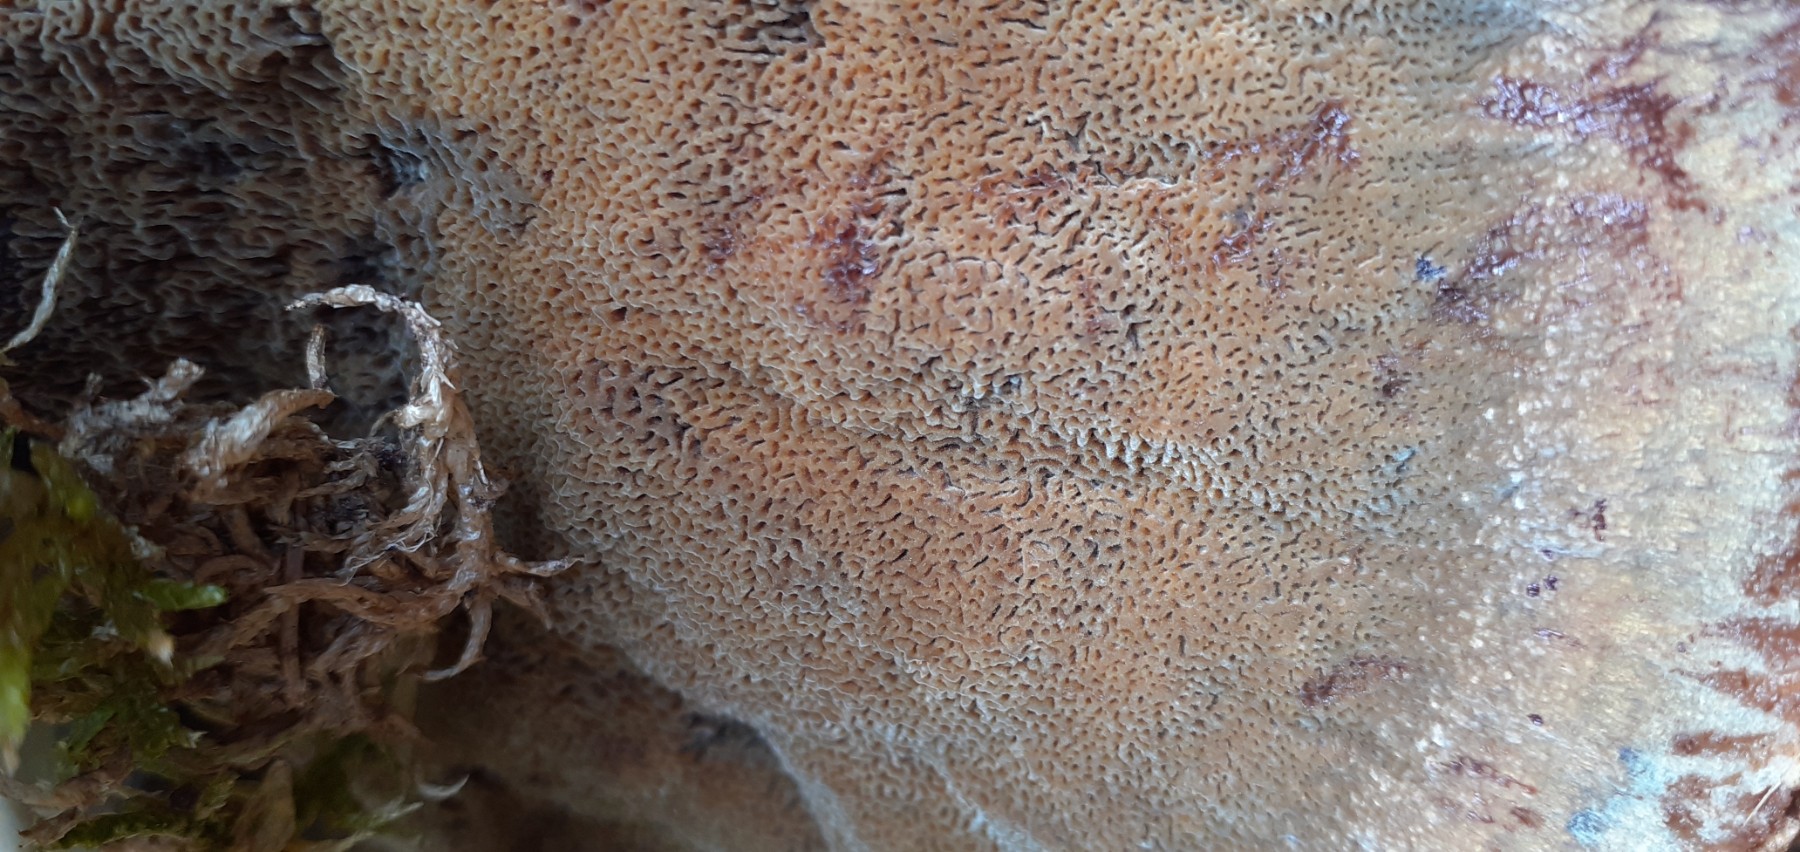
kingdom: Fungi
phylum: Basidiomycota
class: Agaricomycetes
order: Polyporales
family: Laetiporaceae
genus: Phaeolus
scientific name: Phaeolus schweinitzii
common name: brunporesvamp
